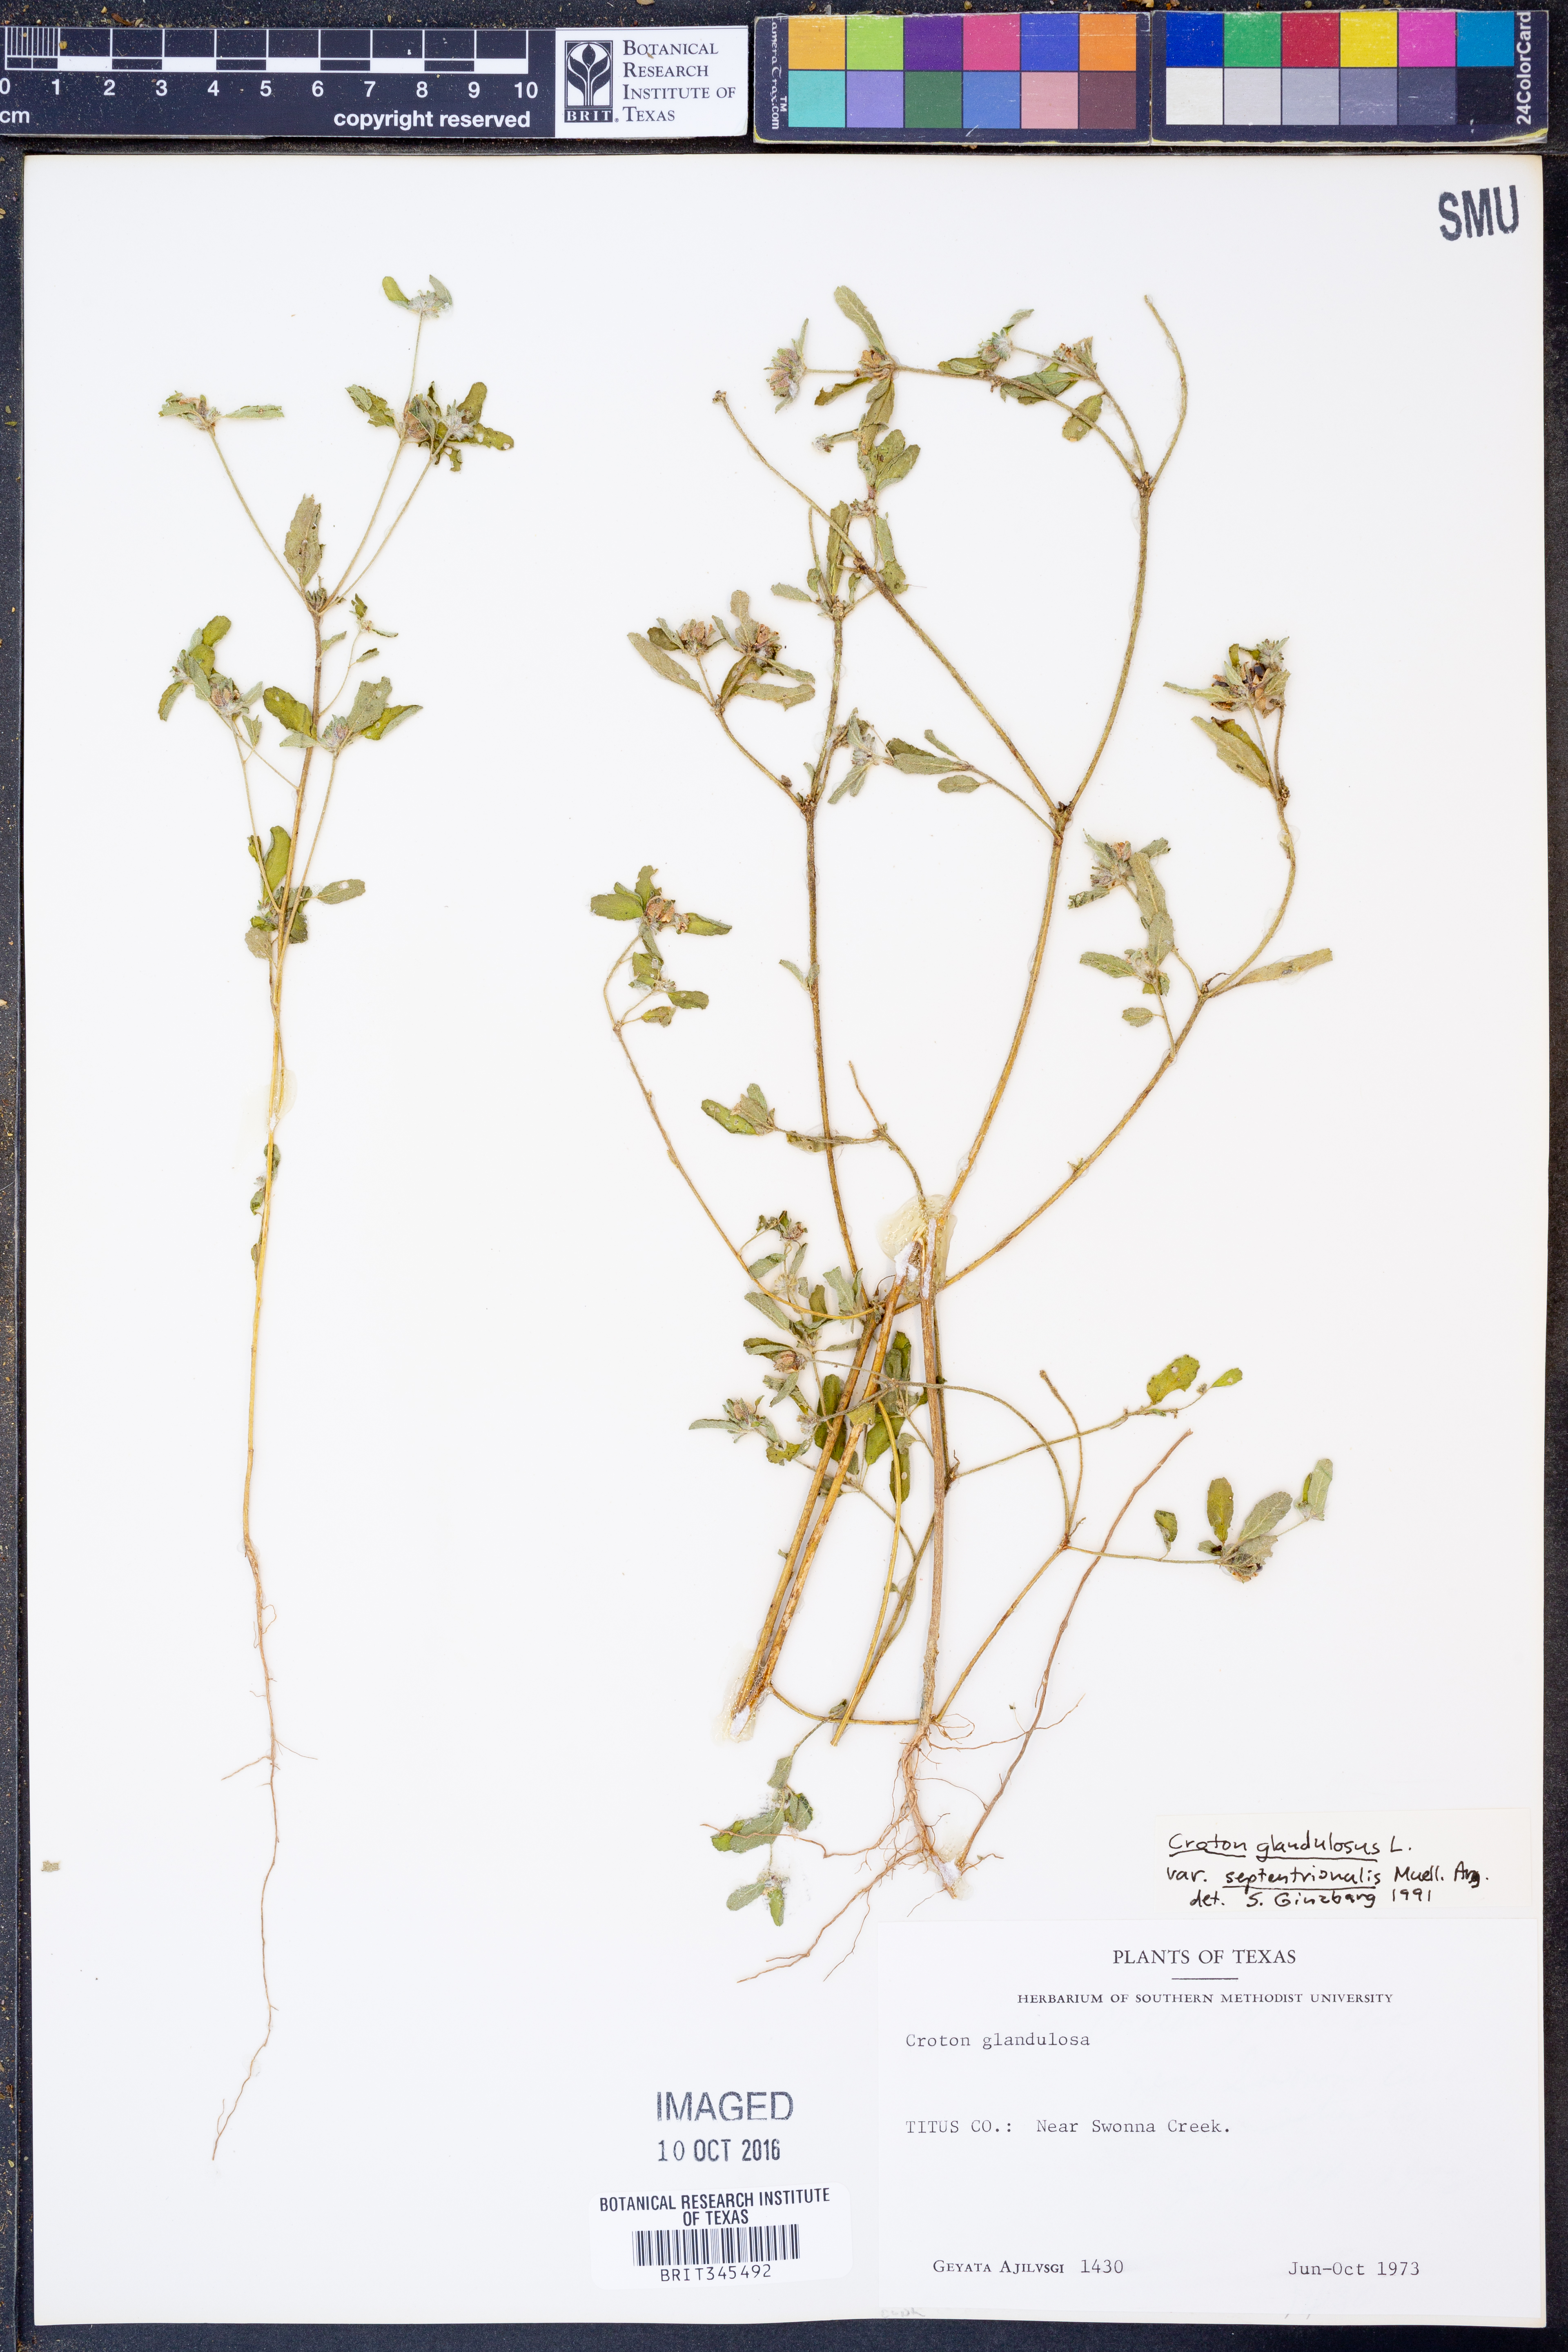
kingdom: Plantae
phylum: Tracheophyta
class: Magnoliopsida
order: Malpighiales
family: Euphorbiaceae
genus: Croton
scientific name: Croton glandulosus
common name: Tropic croton
